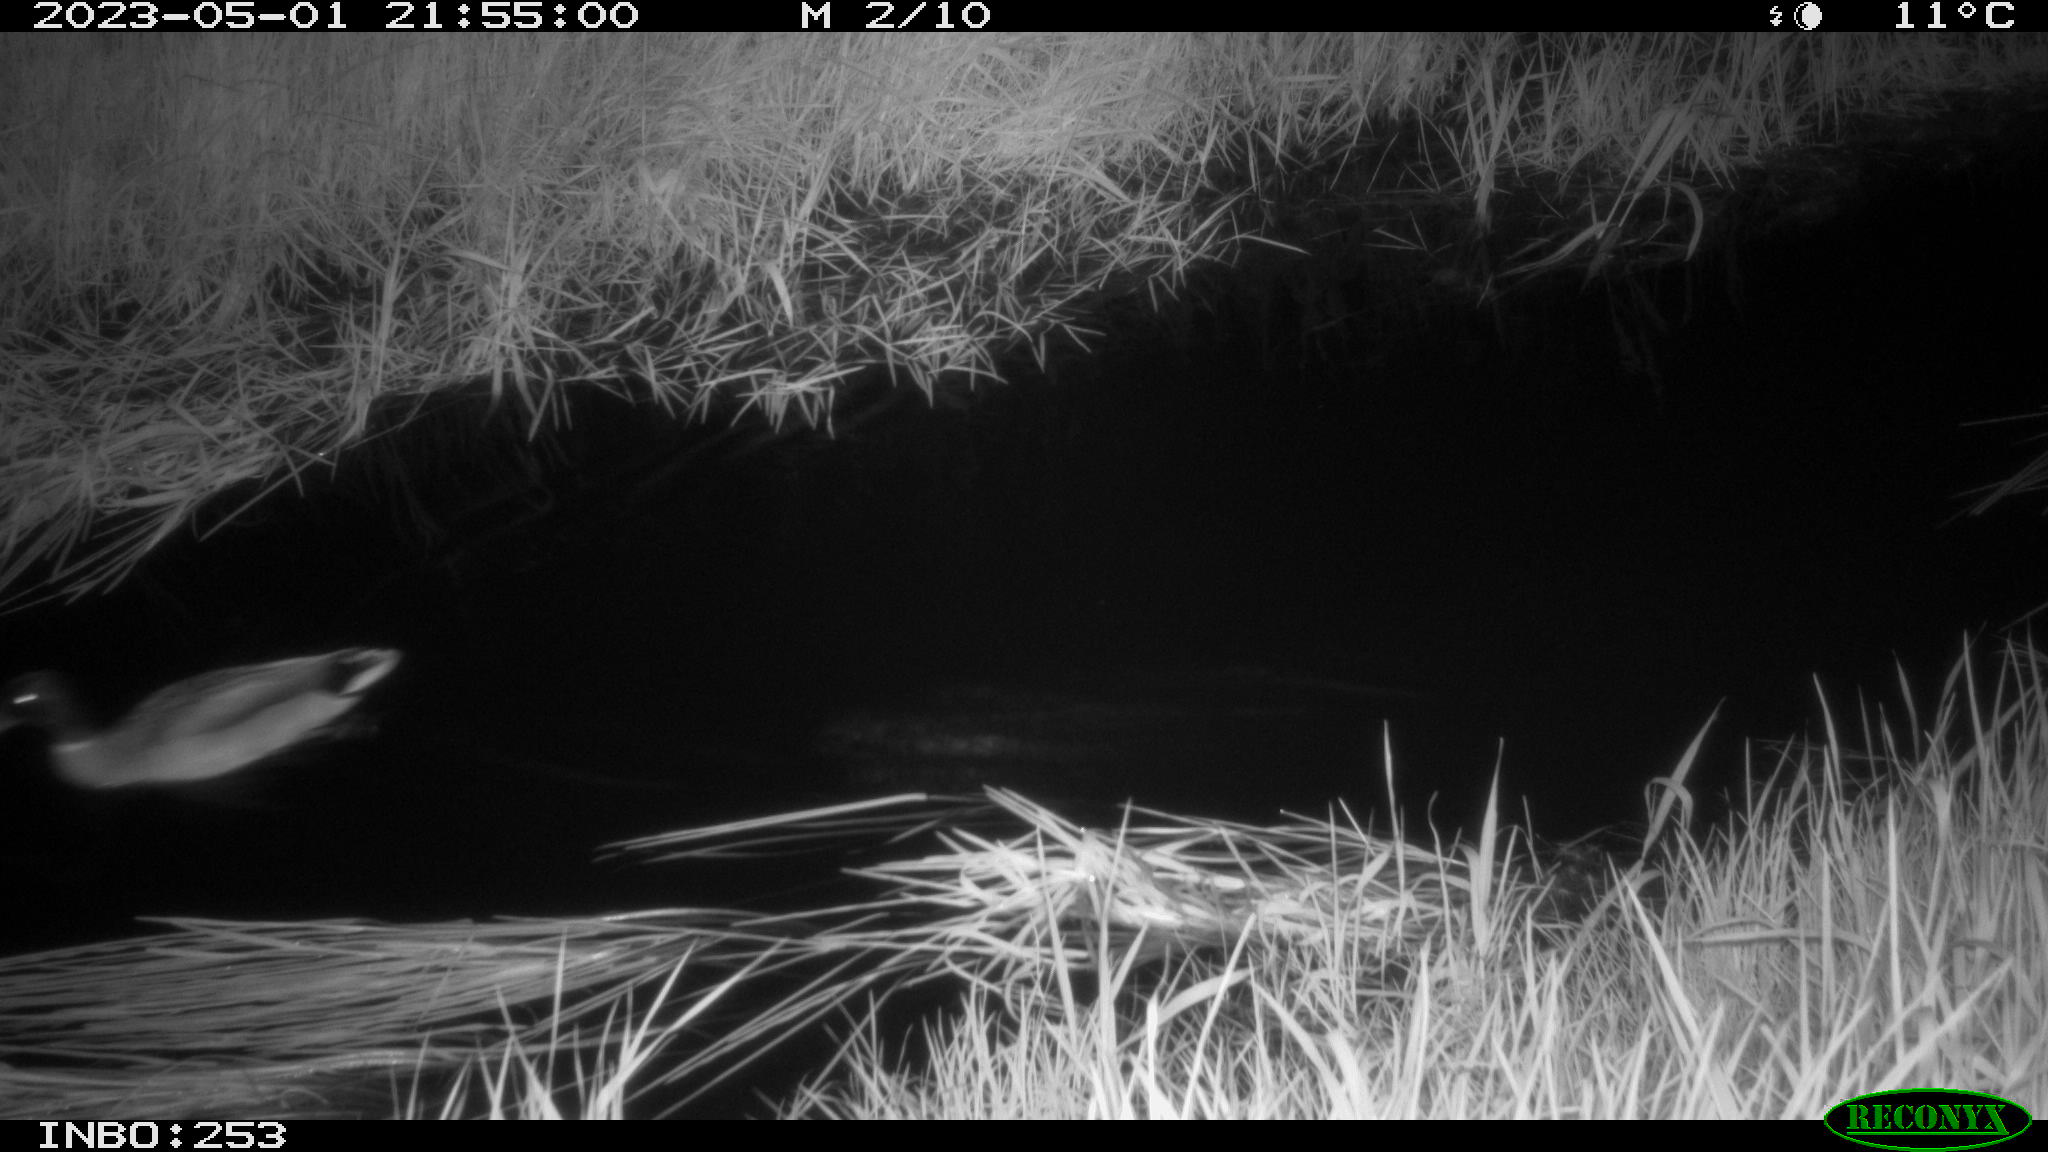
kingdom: Animalia
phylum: Chordata
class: Aves
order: Anseriformes
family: Anatidae
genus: Anas
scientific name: Anas
